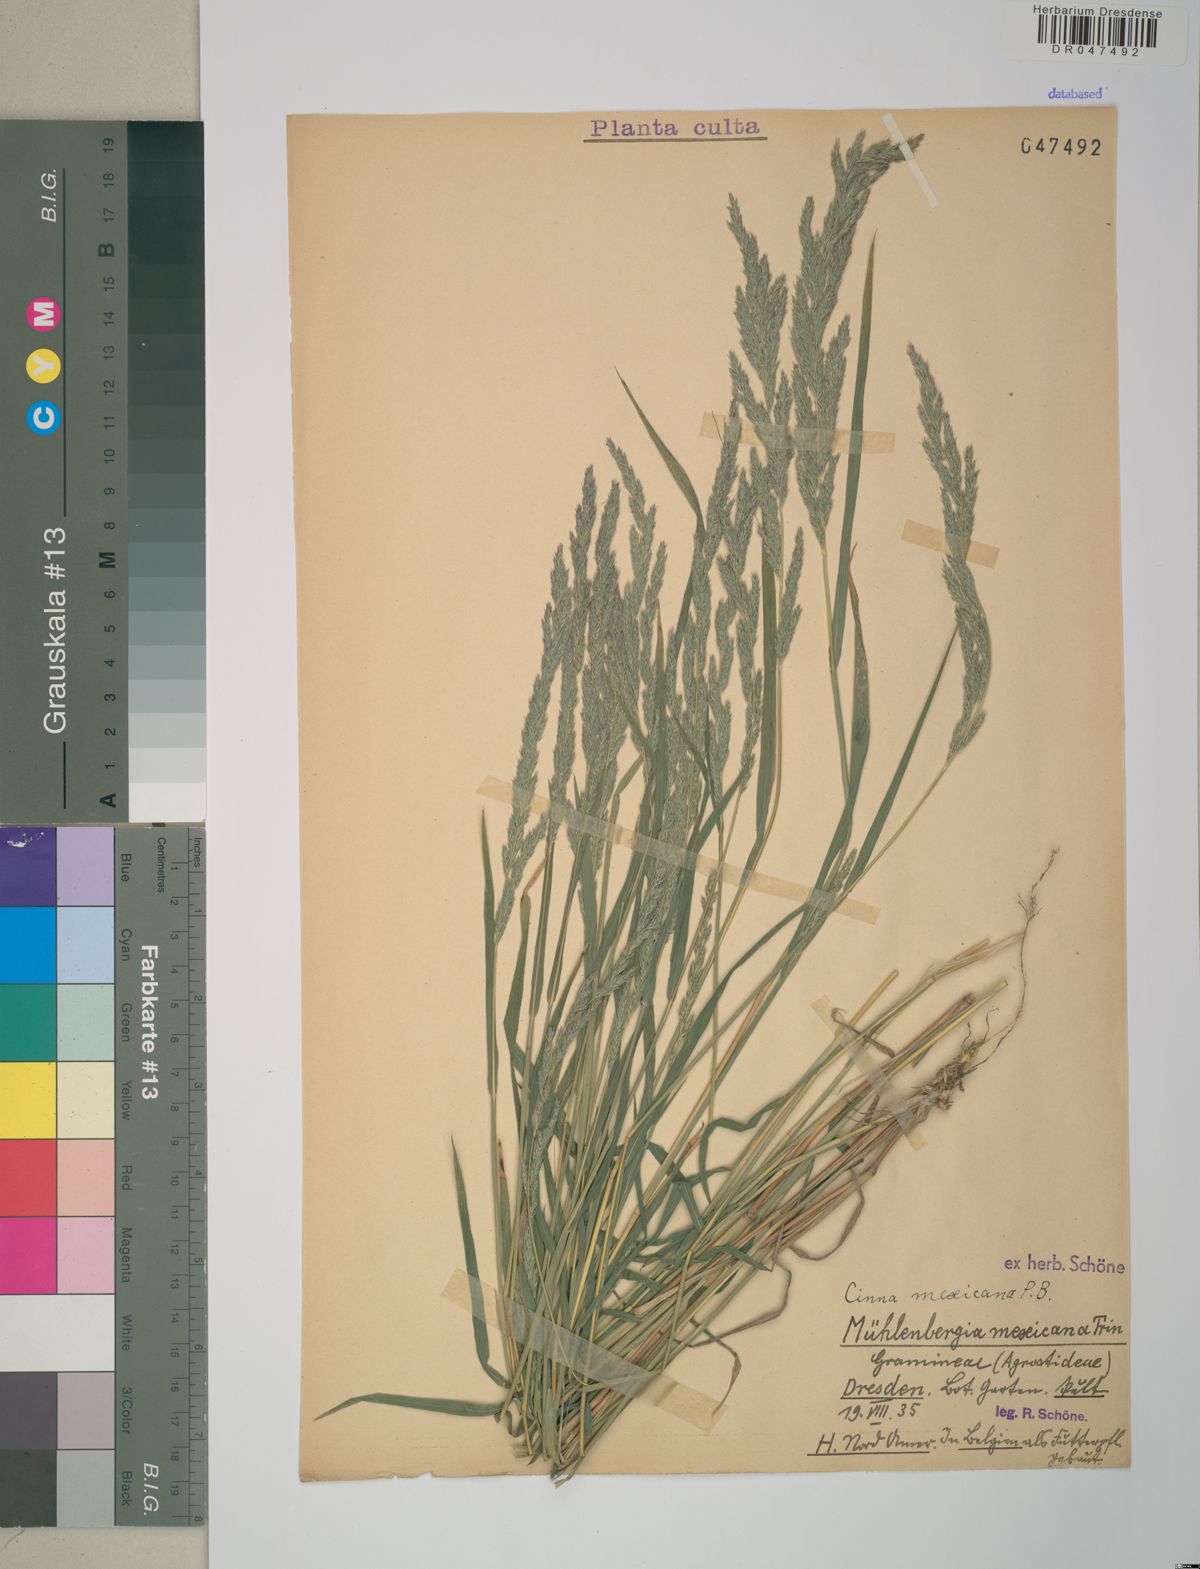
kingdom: Plantae
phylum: Tracheophyta
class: Liliopsida
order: Poales
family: Poaceae
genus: Muhlenbergia
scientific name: Muhlenbergia mexicana
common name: Mexican muhly
